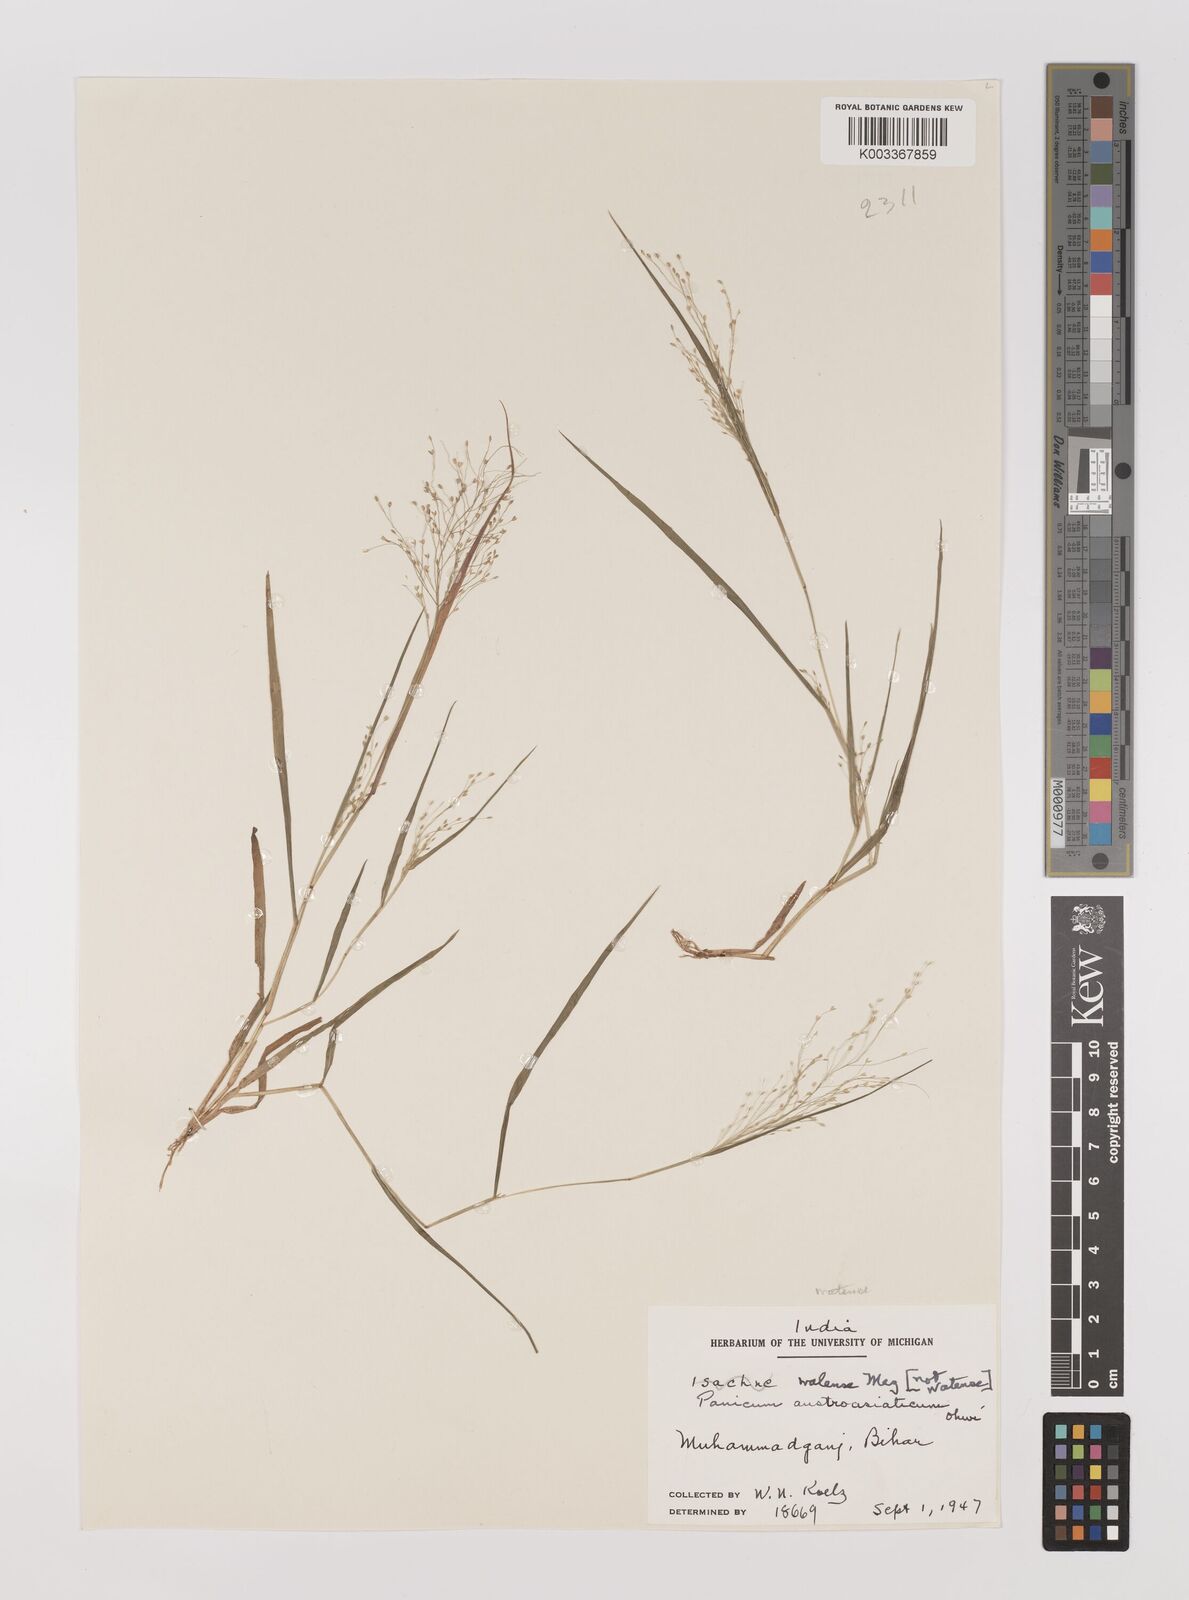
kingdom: Plantae
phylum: Tracheophyta
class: Liliopsida
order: Poales
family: Poaceae
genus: Panicum
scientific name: Panicum humile
